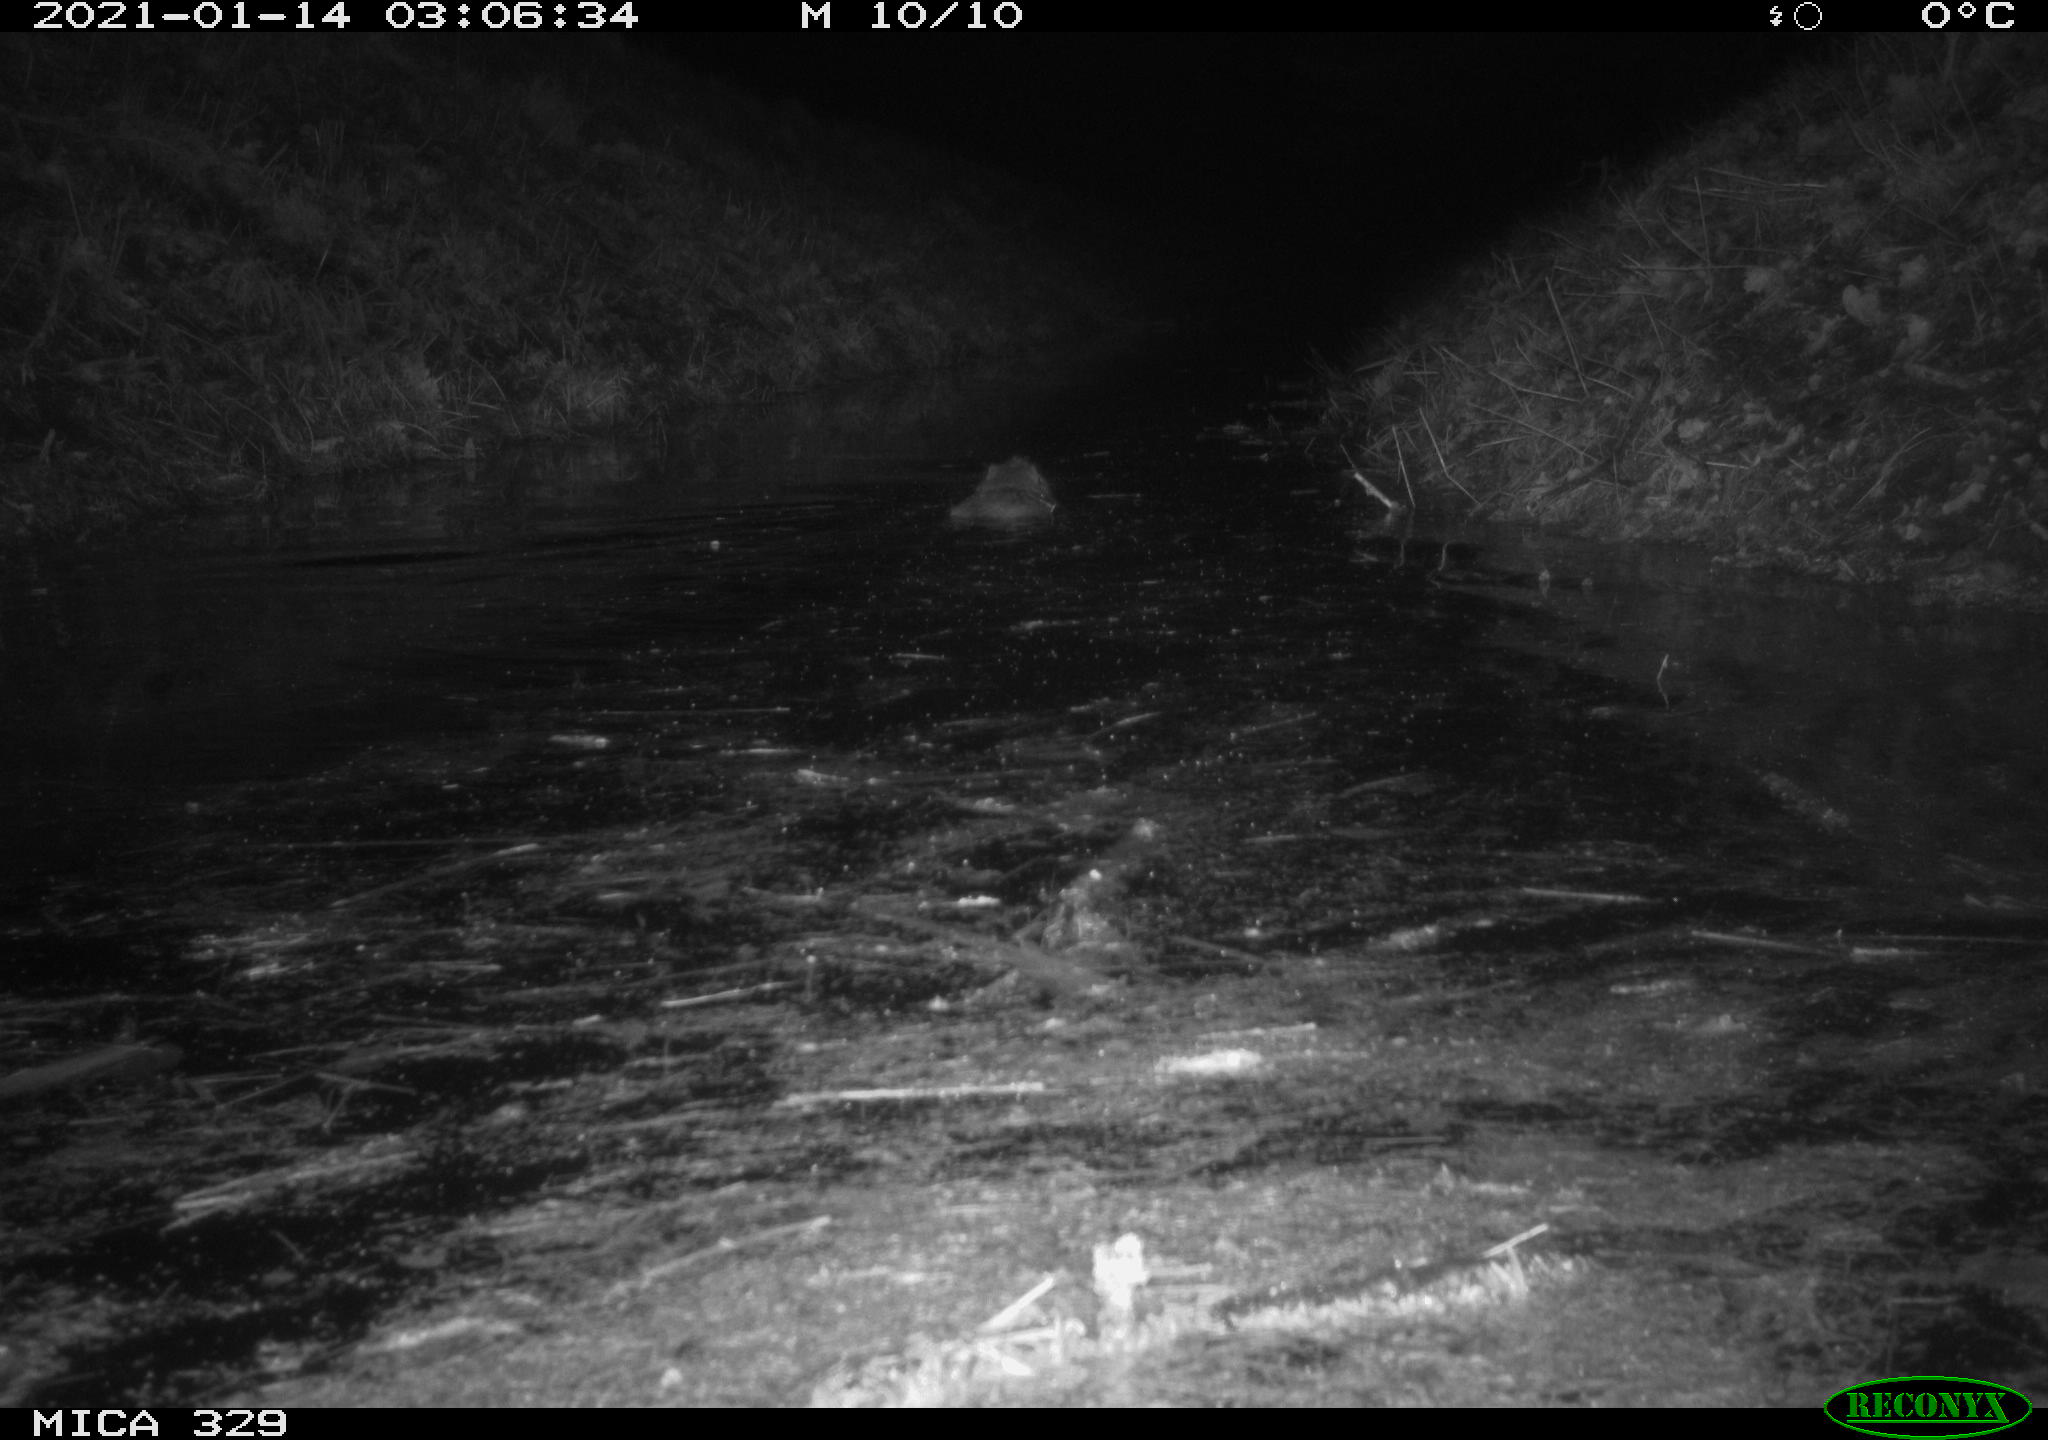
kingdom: Animalia
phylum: Chordata
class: Mammalia
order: Rodentia
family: Myocastoridae
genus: Myocastor
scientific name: Myocastor coypus
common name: Coypu
